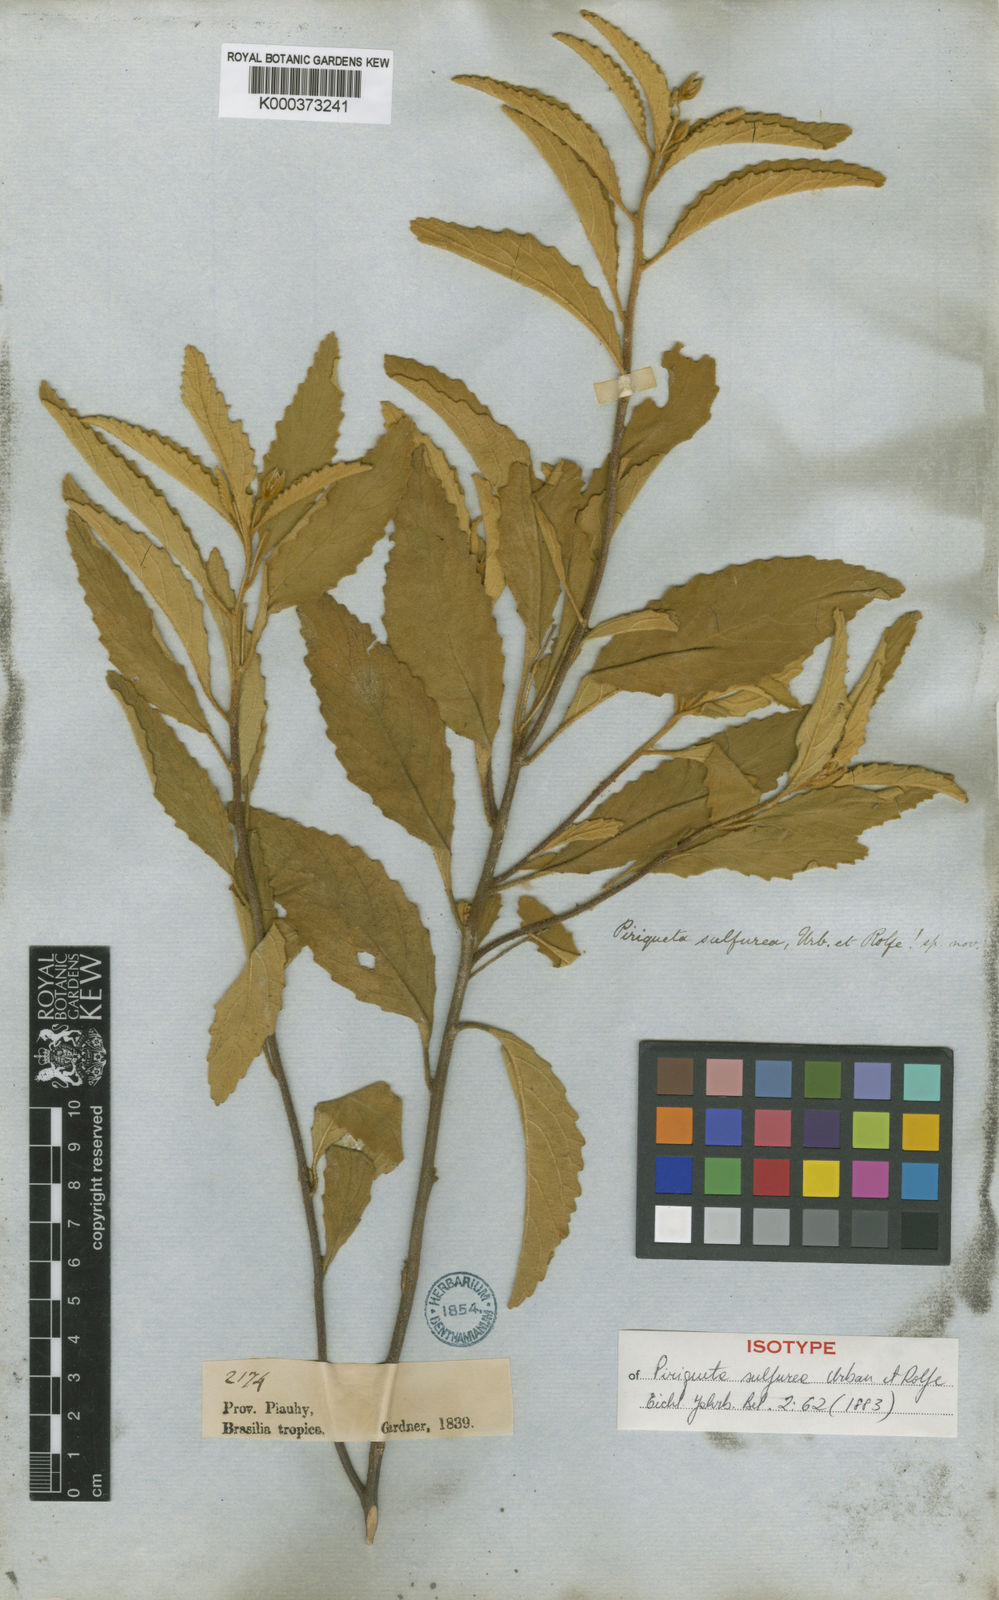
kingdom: Plantae
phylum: Tracheophyta
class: Magnoliopsida
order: Malpighiales
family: Turneraceae
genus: Piriqueta
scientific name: Piriqueta
